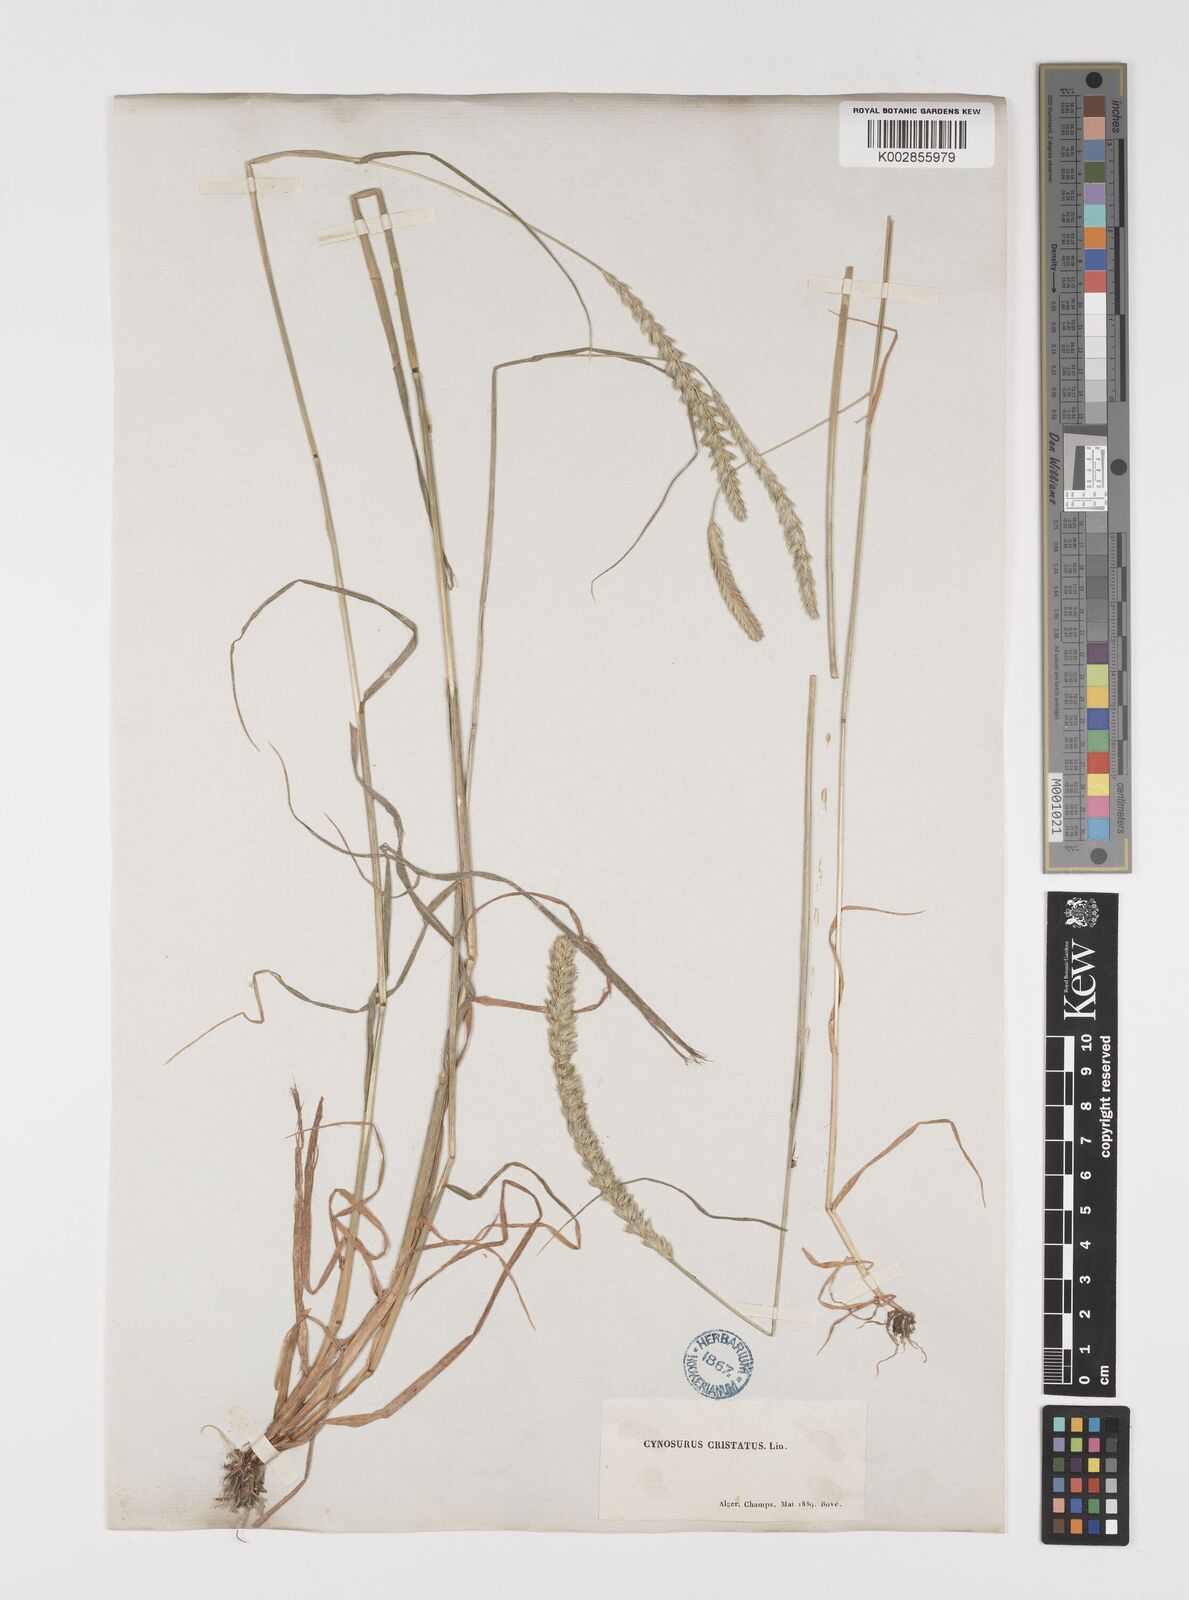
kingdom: Plantae
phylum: Tracheophyta
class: Liliopsida
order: Poales
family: Poaceae
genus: Cynosurus
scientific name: Cynosurus cristatus
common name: Crested dog's-tail
